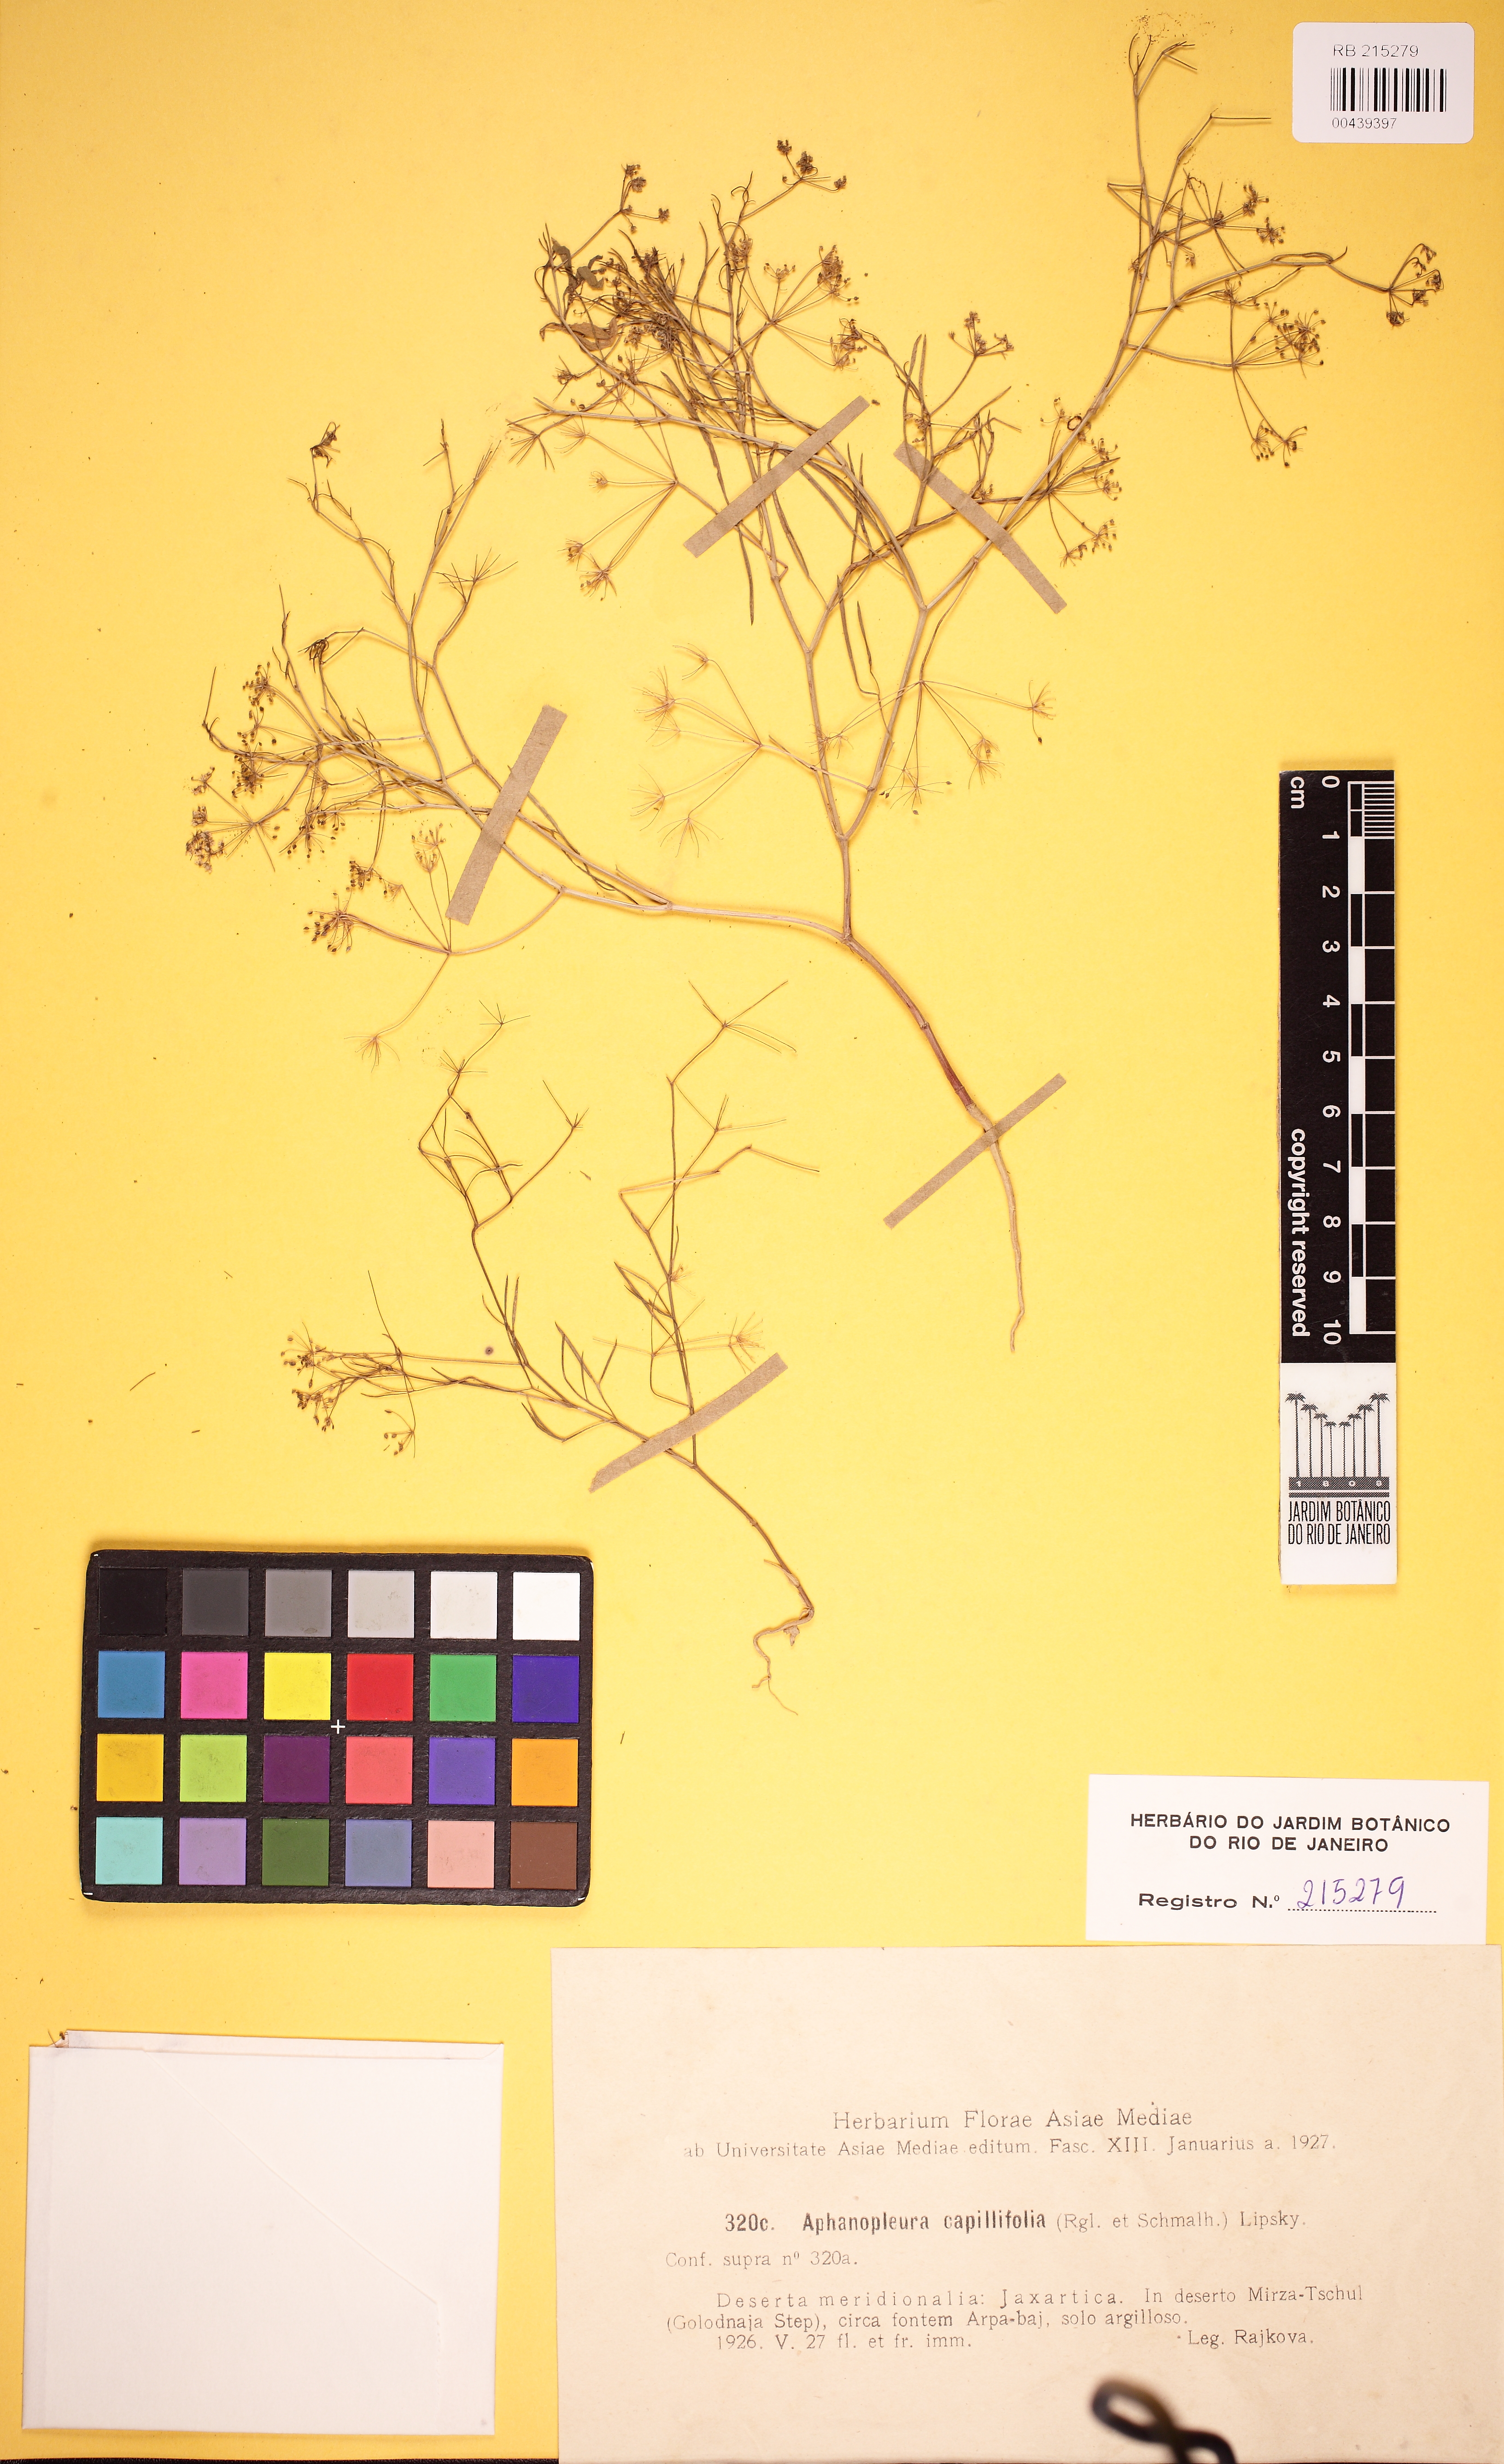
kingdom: Plantae
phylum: Tracheophyta
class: Magnoliopsida
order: Apiales
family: Apiaceae
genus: Psammogeton
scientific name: Psammogeton capillifolium
